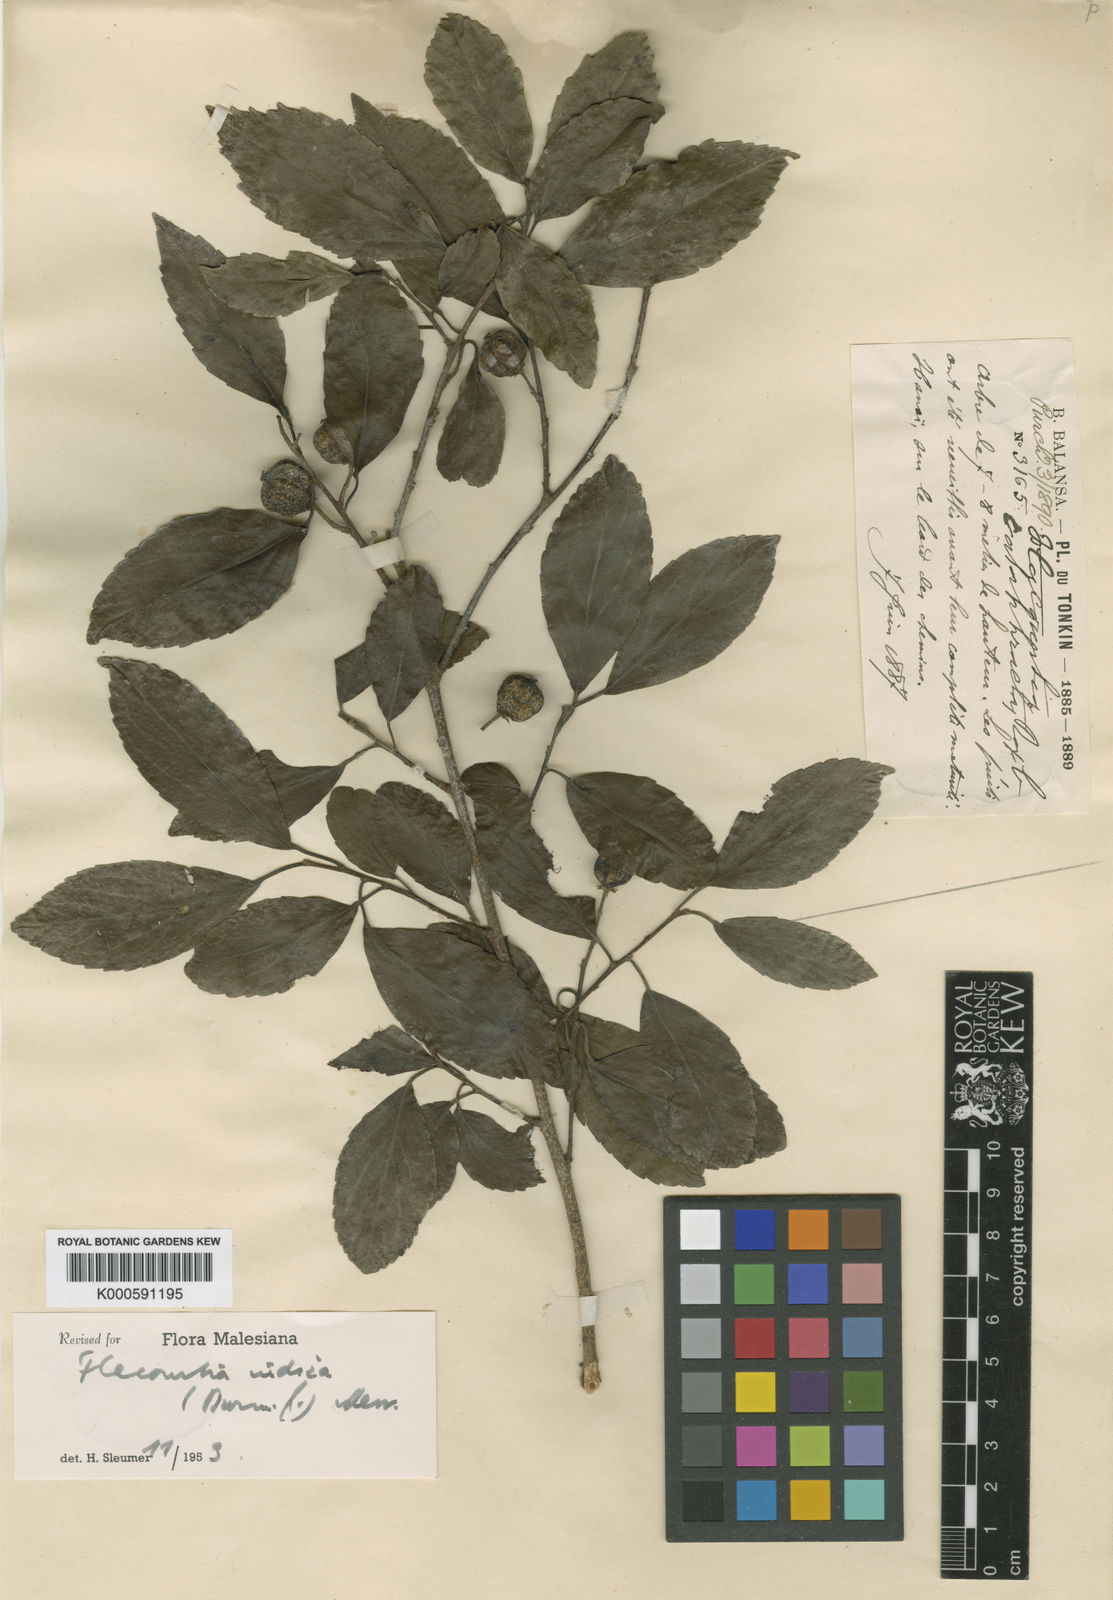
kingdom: Plantae
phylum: Tracheophyta
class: Magnoliopsida
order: Malpighiales
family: Salicaceae
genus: Flacourtia
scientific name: Flacourtia indica
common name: Governor's plum
